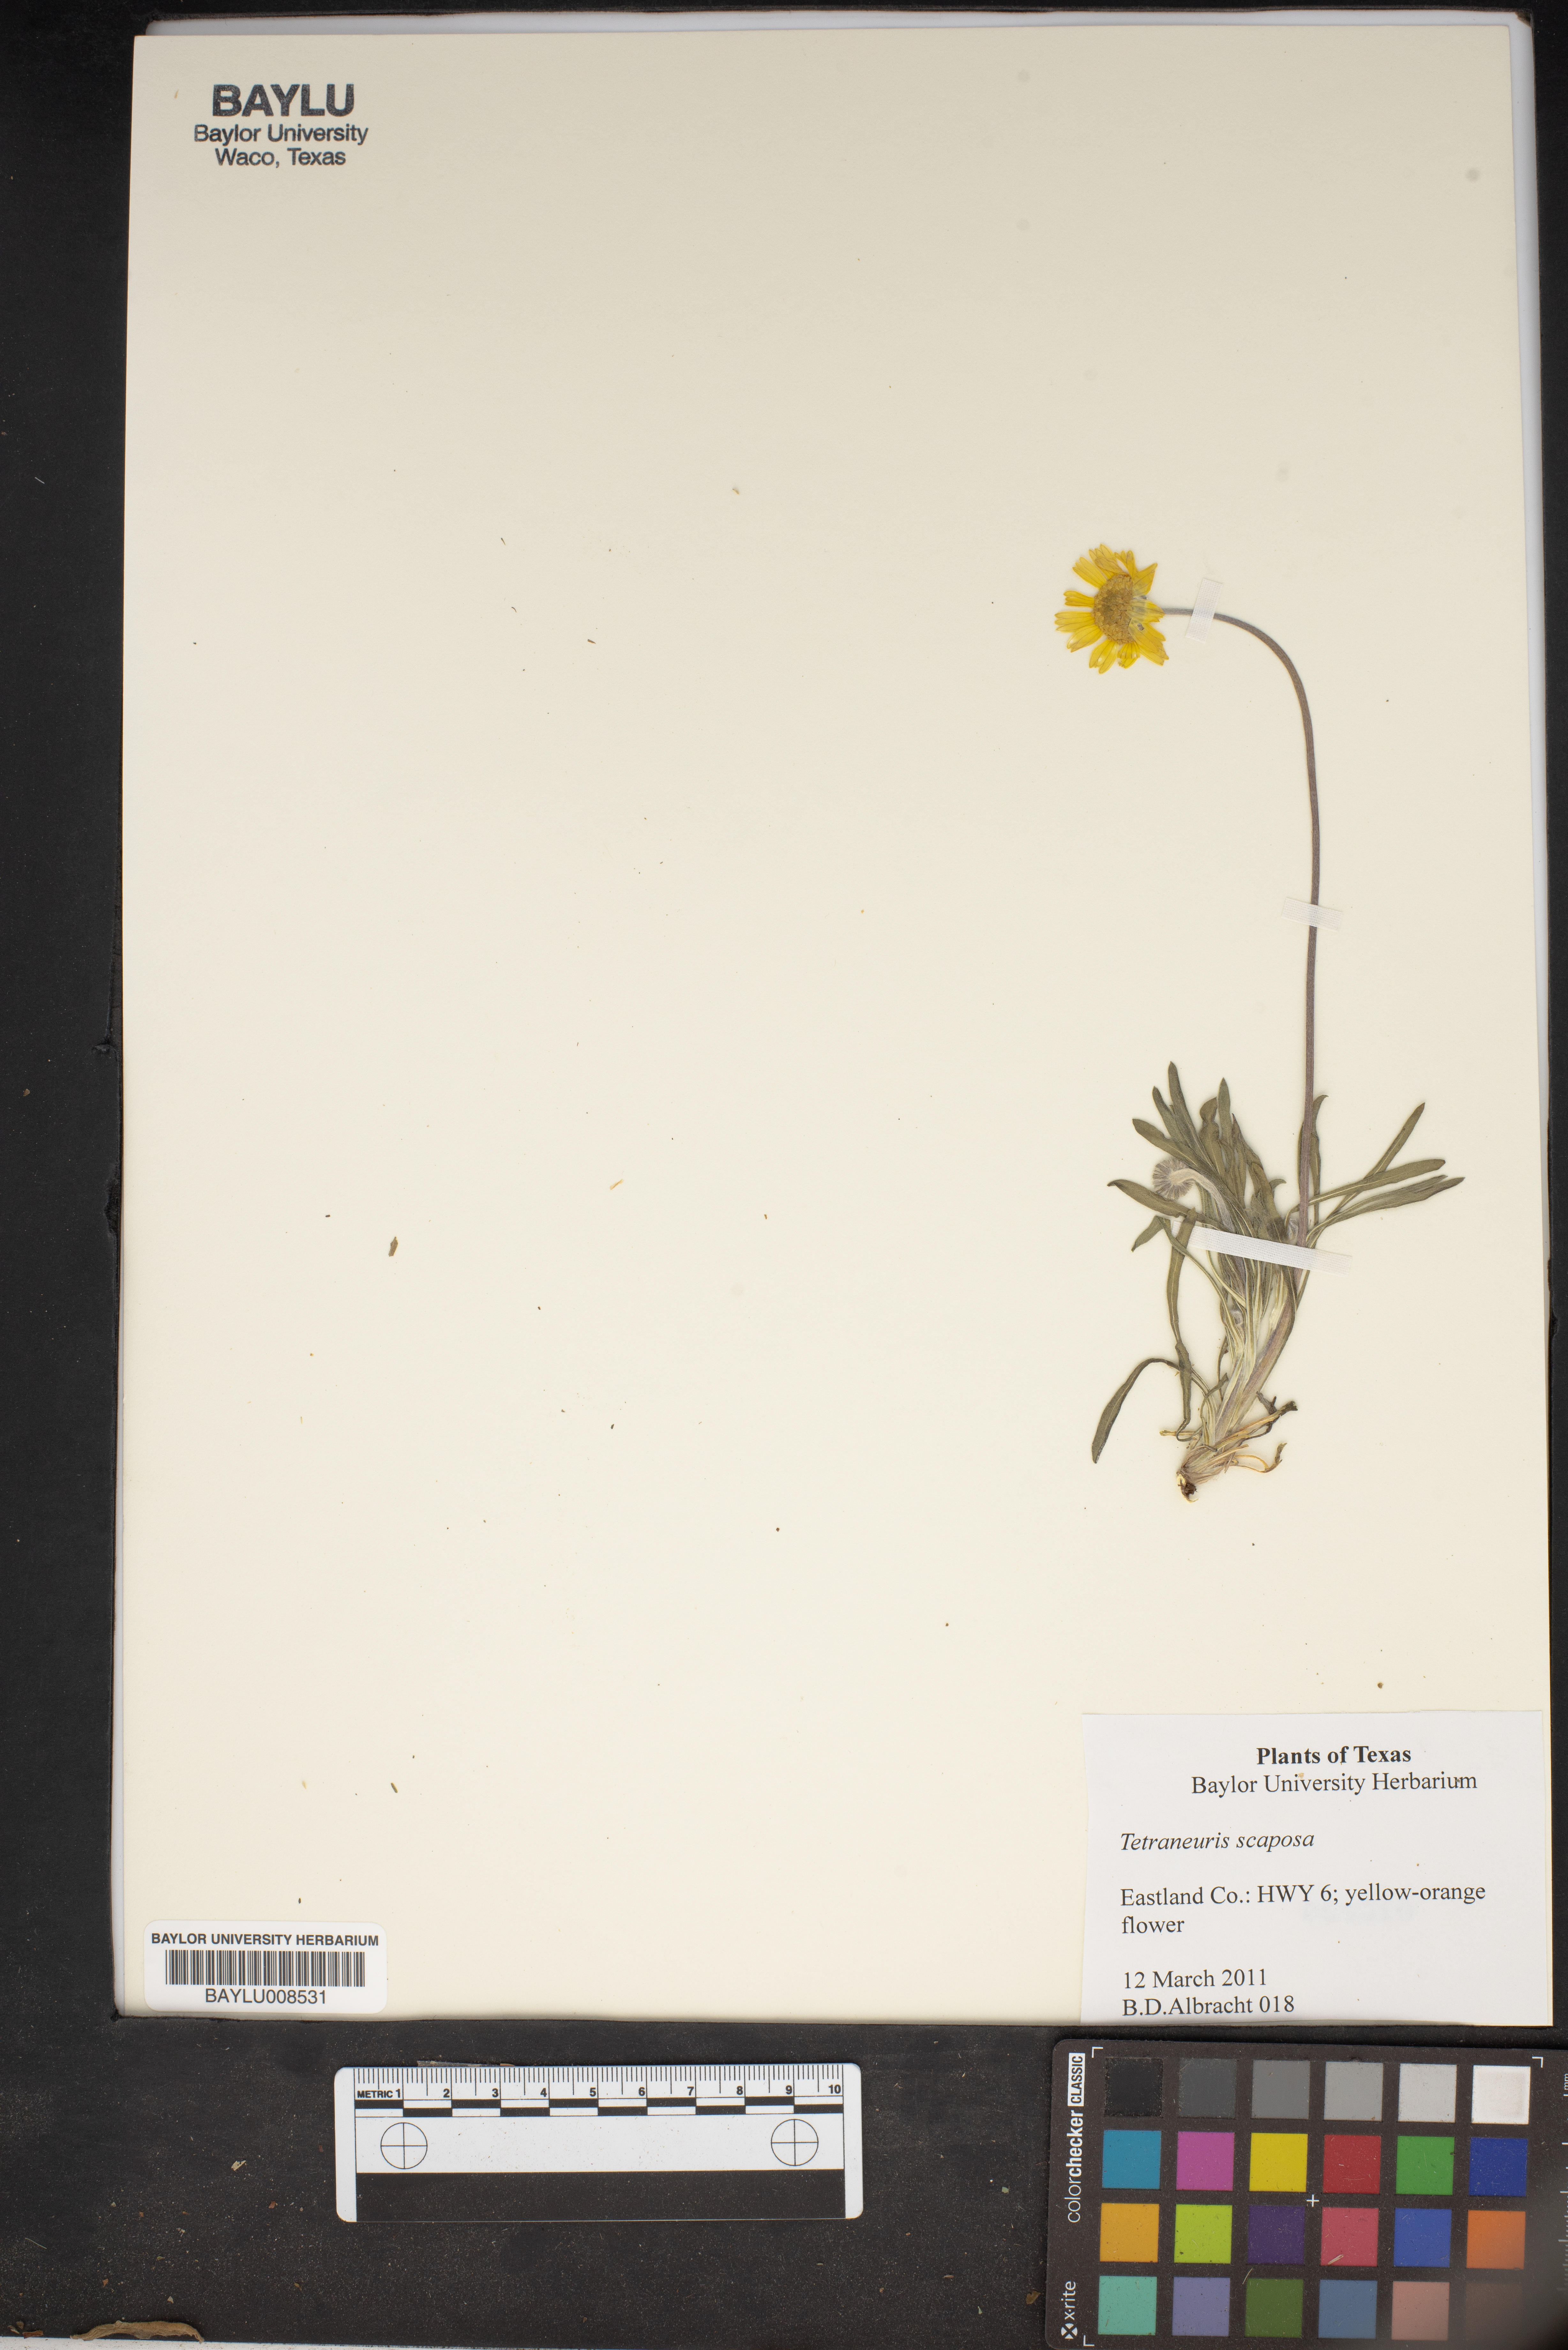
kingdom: Plantae
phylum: Tracheophyta
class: Magnoliopsida
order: Asterales
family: Asteraceae
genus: Tetraneuris
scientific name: Tetraneuris scaposa
